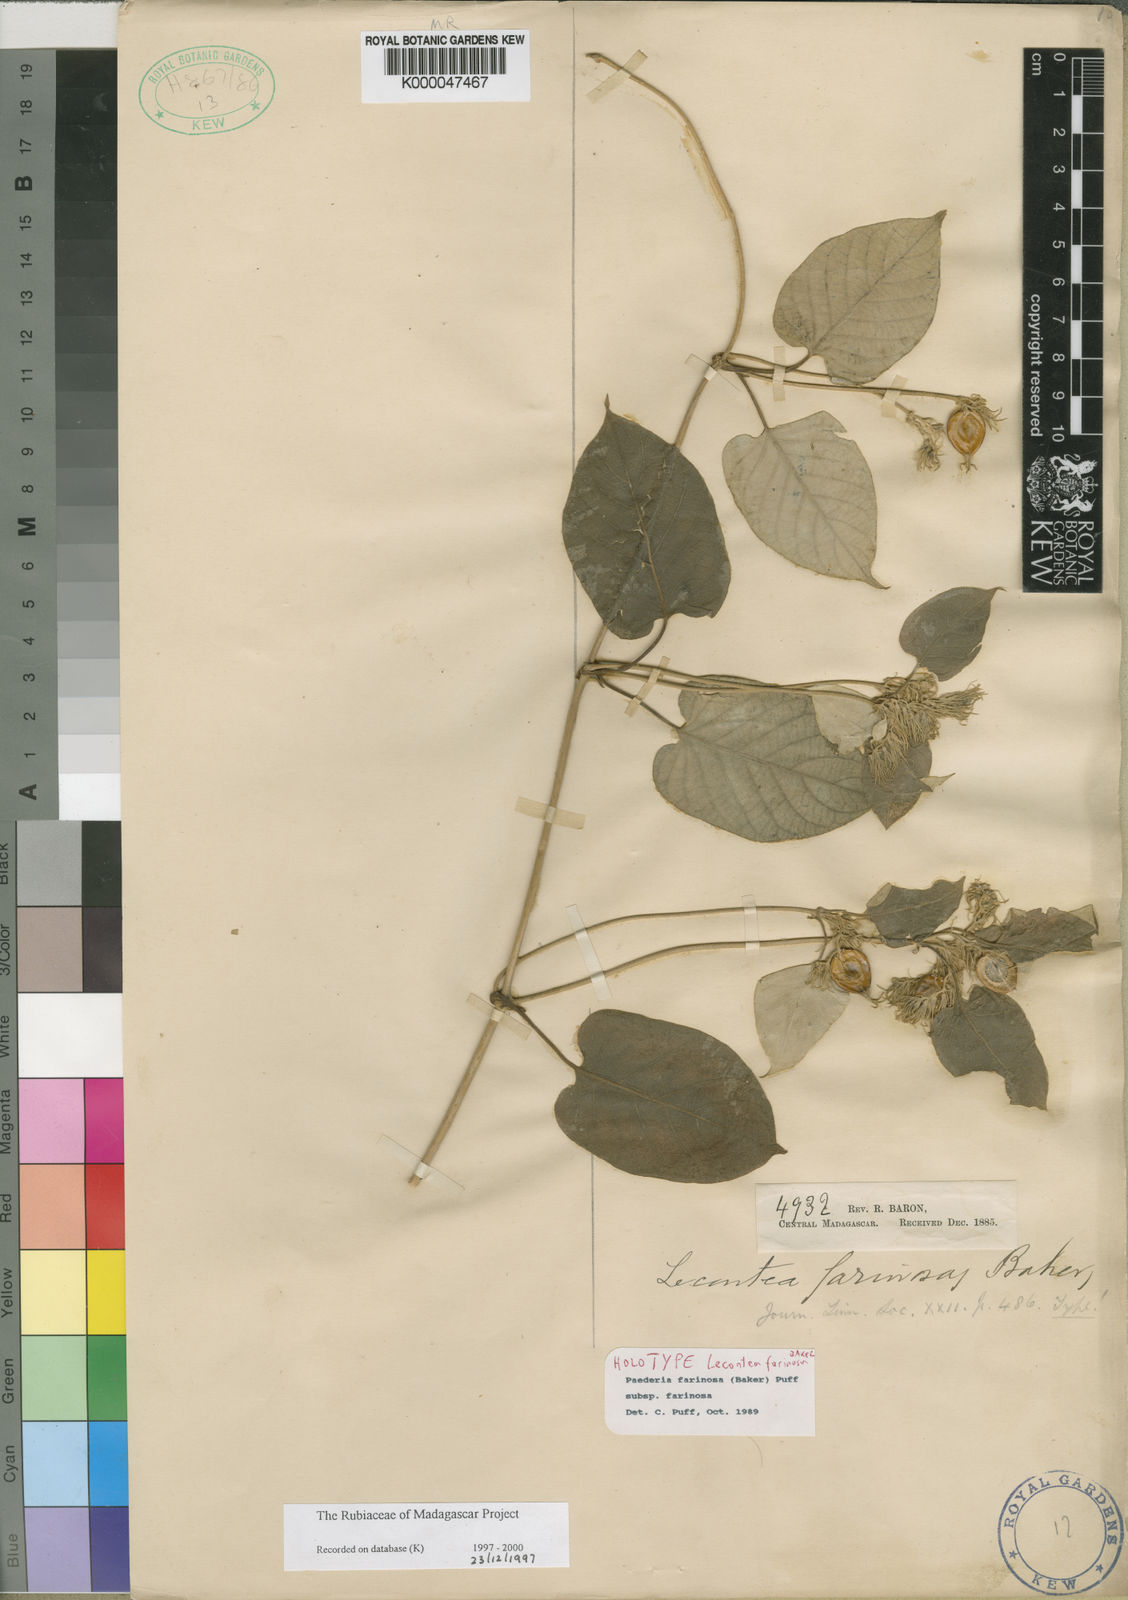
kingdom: Plantae
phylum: Tracheophyta
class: Magnoliopsida
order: Gentianales
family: Rubiaceae
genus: Paederia
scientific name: Paederia farinosa
